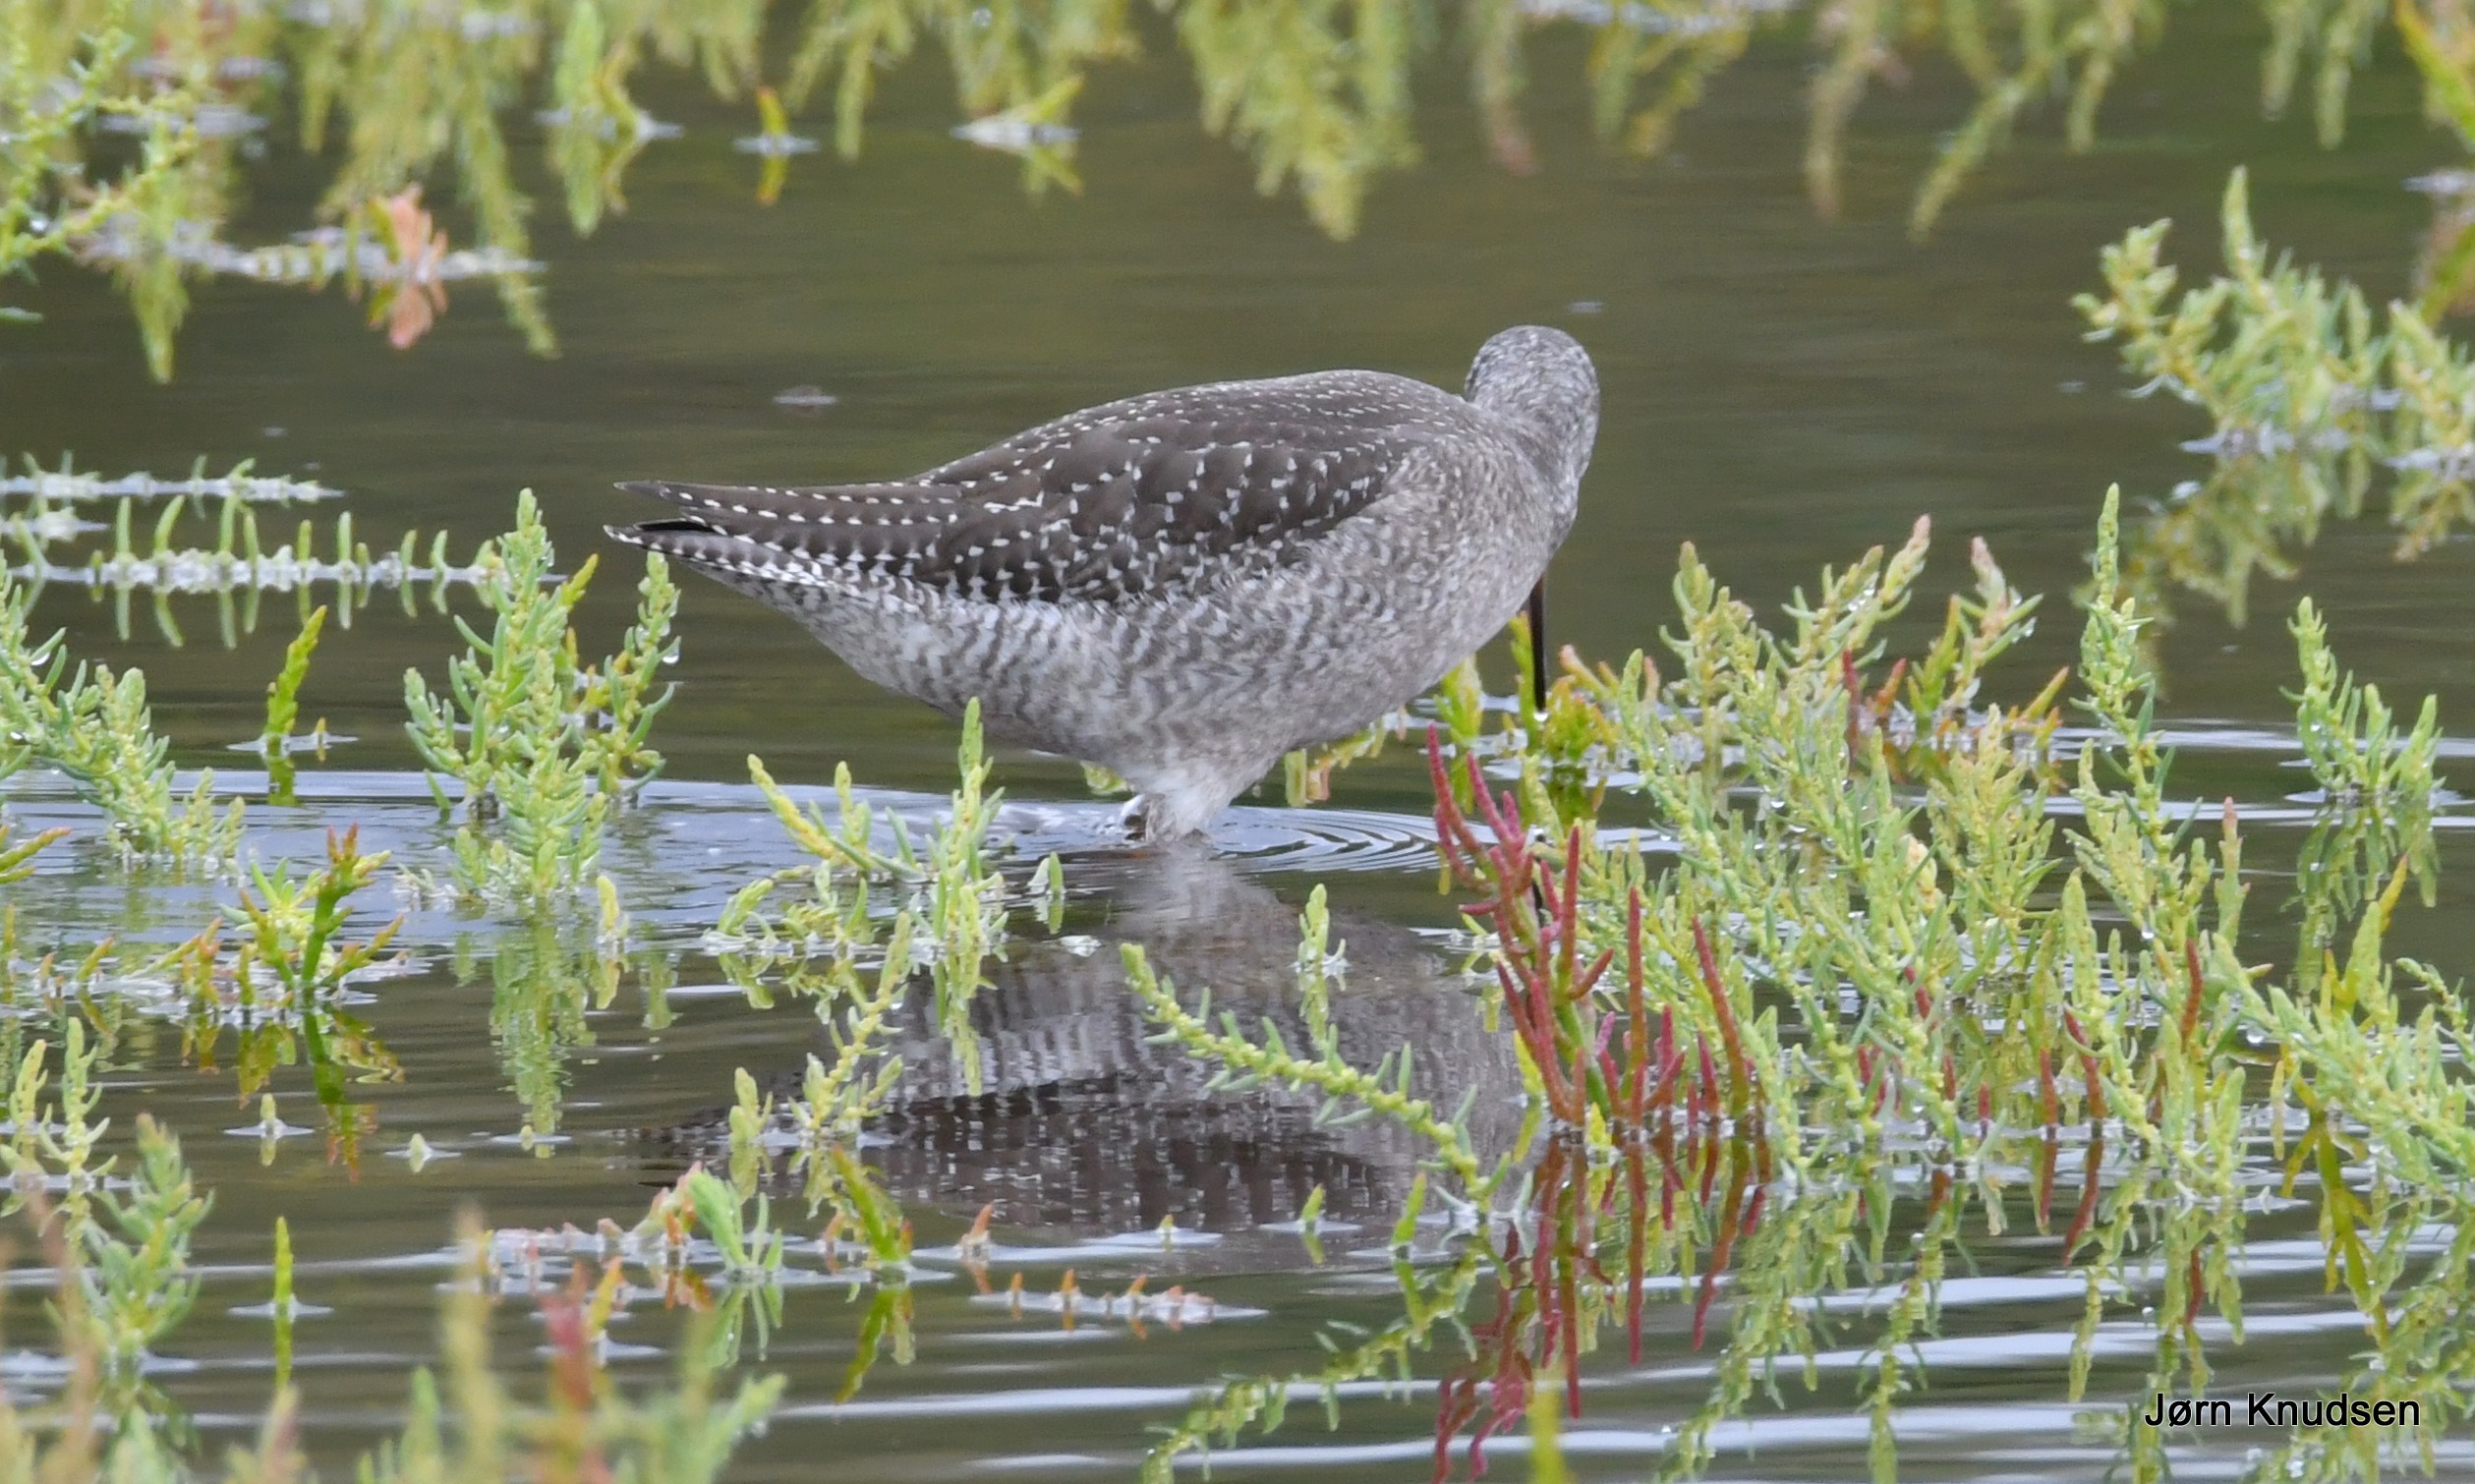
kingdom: Animalia
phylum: Chordata
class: Aves
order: Charadriiformes
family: Scolopacidae
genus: Tringa
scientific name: Tringa erythropus
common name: Sortklire
